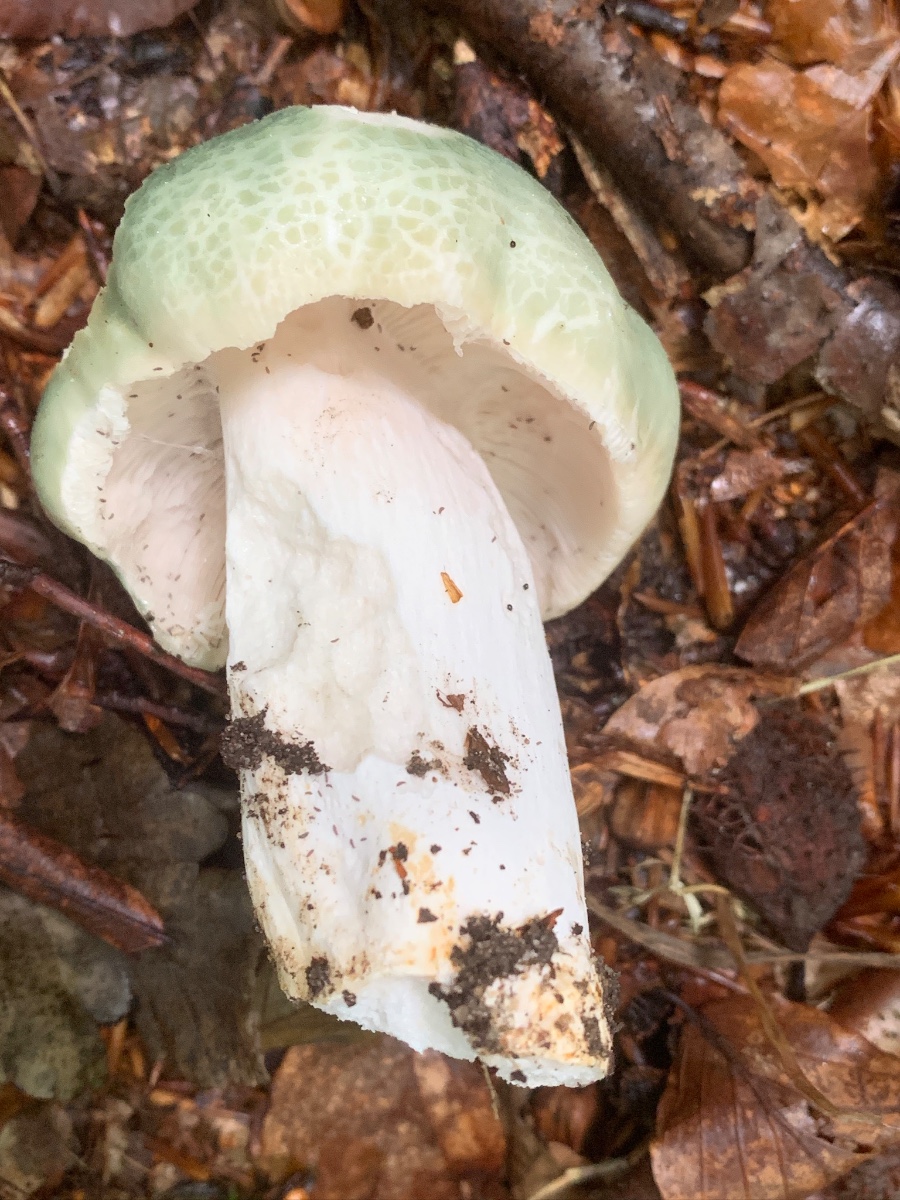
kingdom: Fungi
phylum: Basidiomycota
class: Agaricomycetes
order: Russulales
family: Russulaceae
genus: Russula
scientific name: Russula virescens
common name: spanskgrøn skørhat
